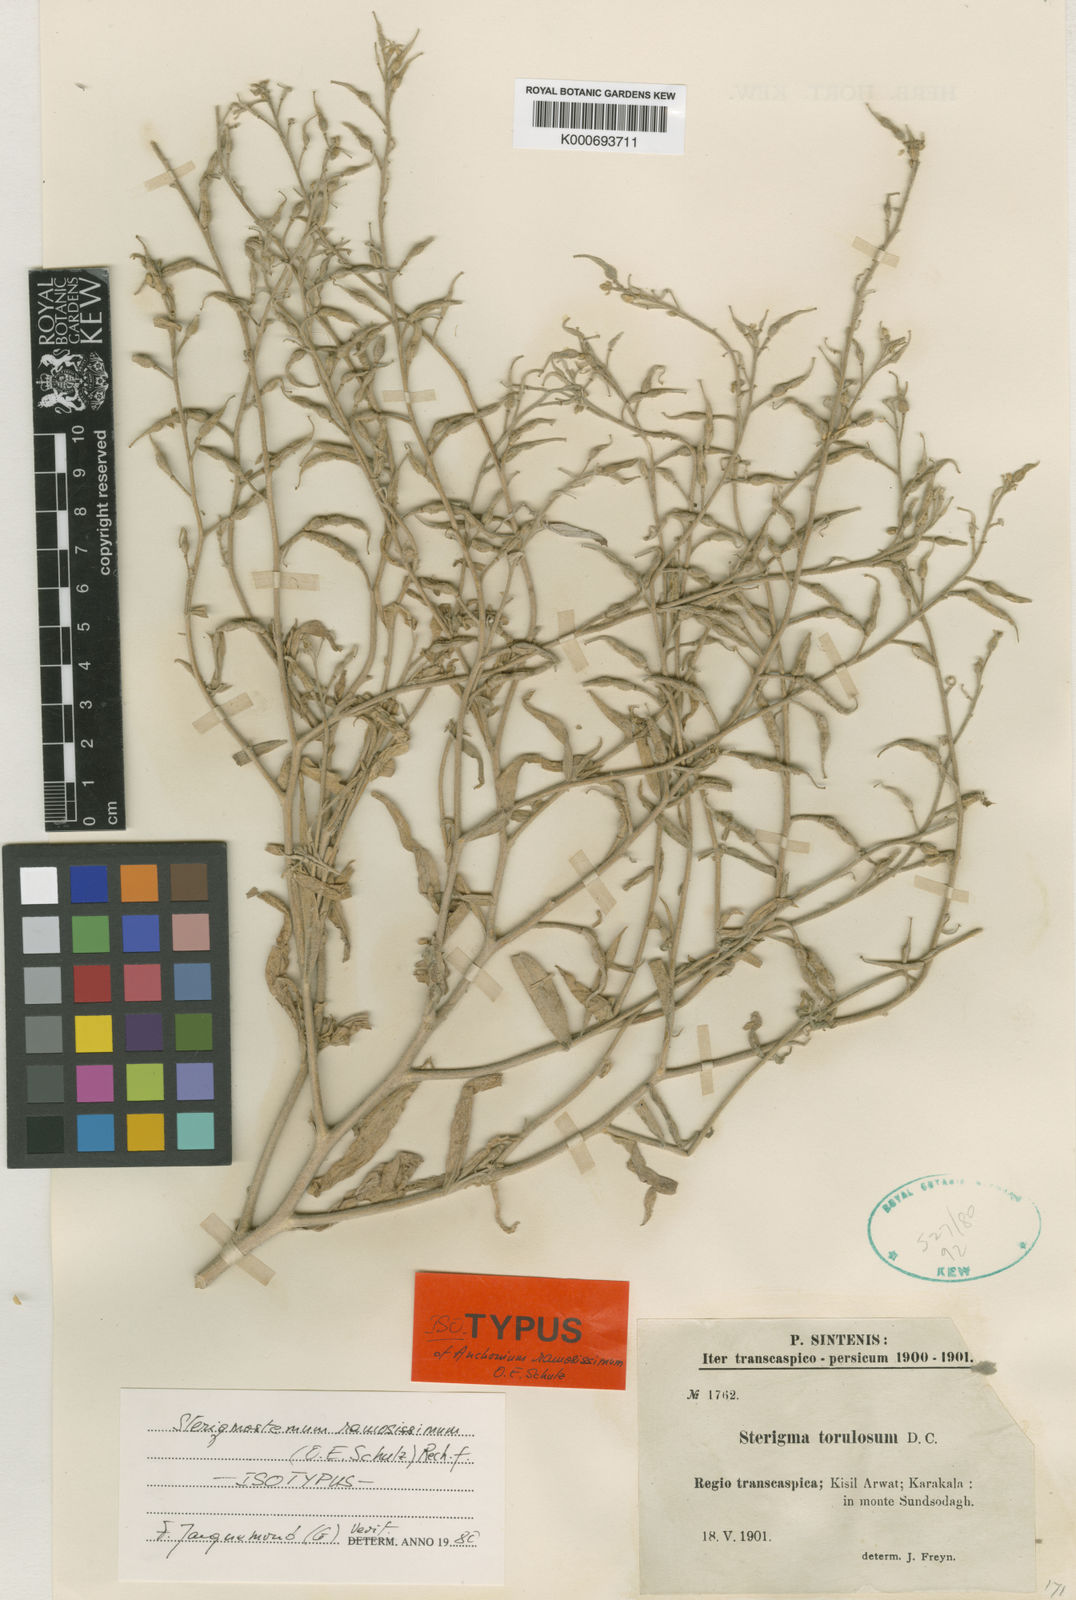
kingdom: Plantae
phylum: Tracheophyta
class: Magnoliopsida
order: Brassicales
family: Brassicaceae
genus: Sterigmostemum
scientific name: Sterigmostemum ramosissimum
